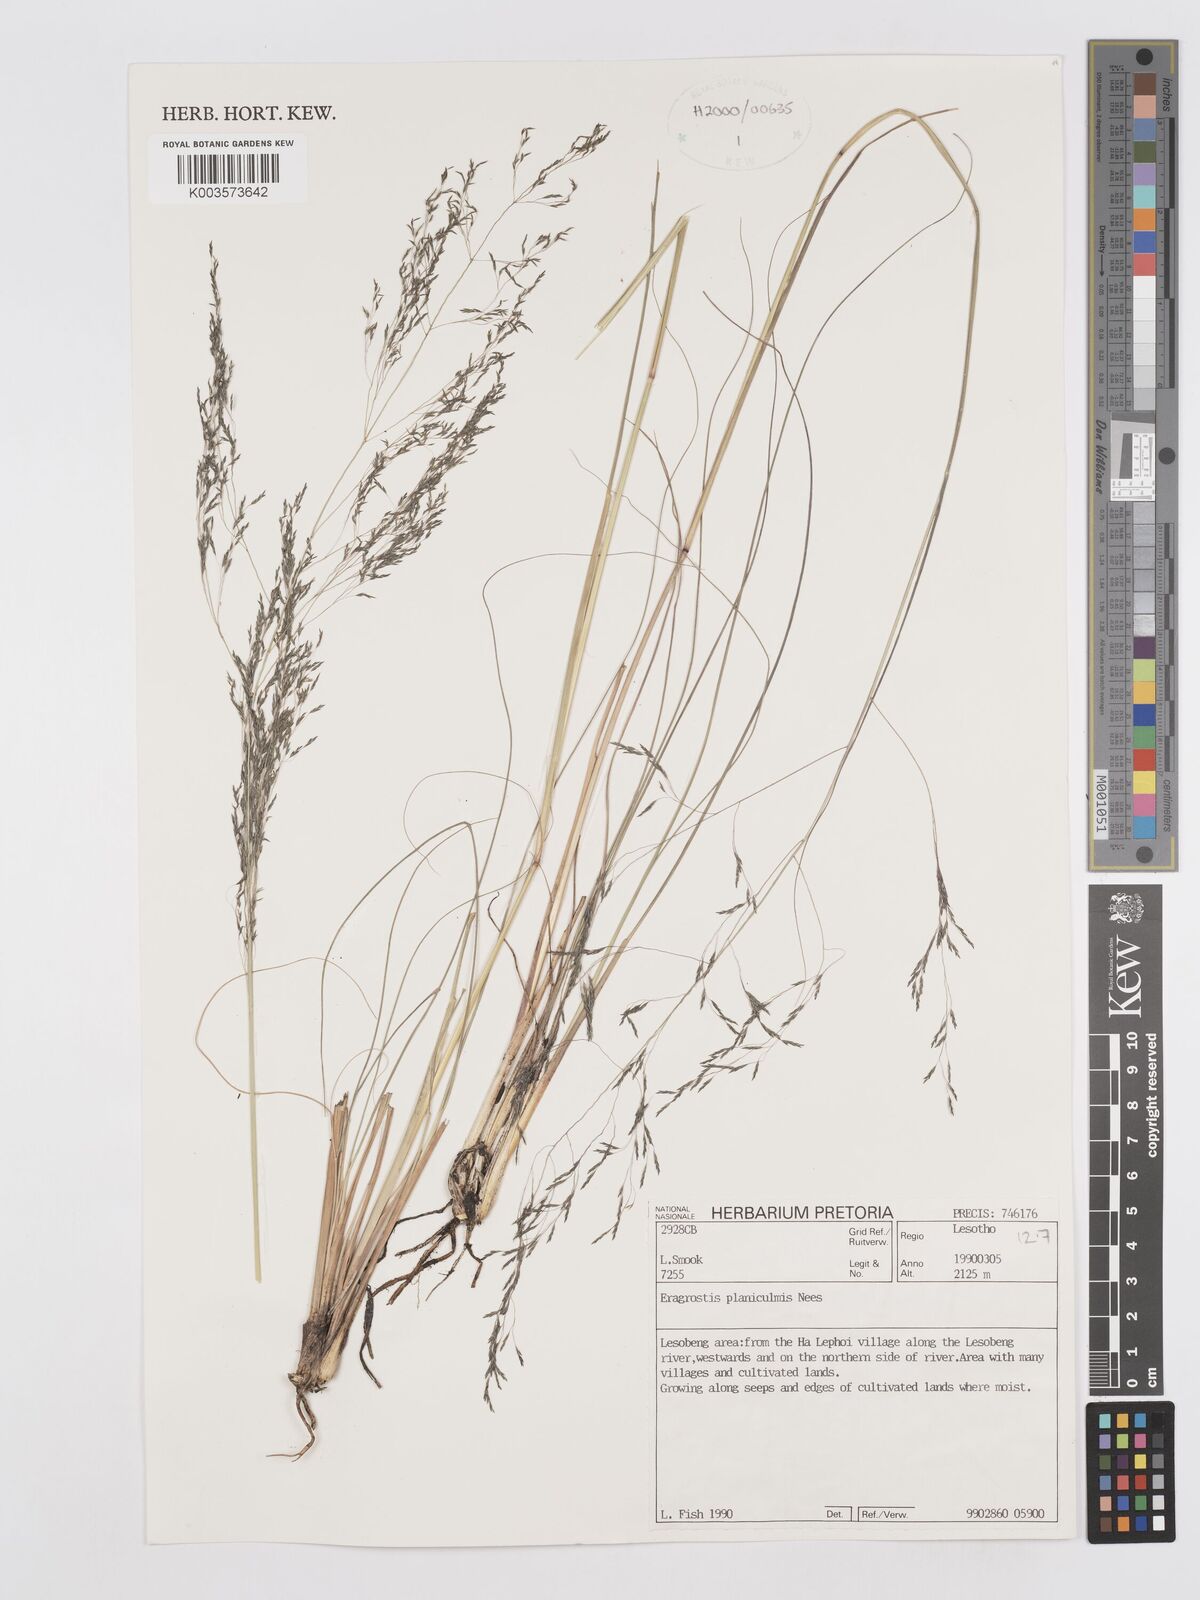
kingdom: Plantae
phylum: Tracheophyta
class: Liliopsida
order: Poales
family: Poaceae
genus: Eragrostis
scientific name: Eragrostis planiculmis
